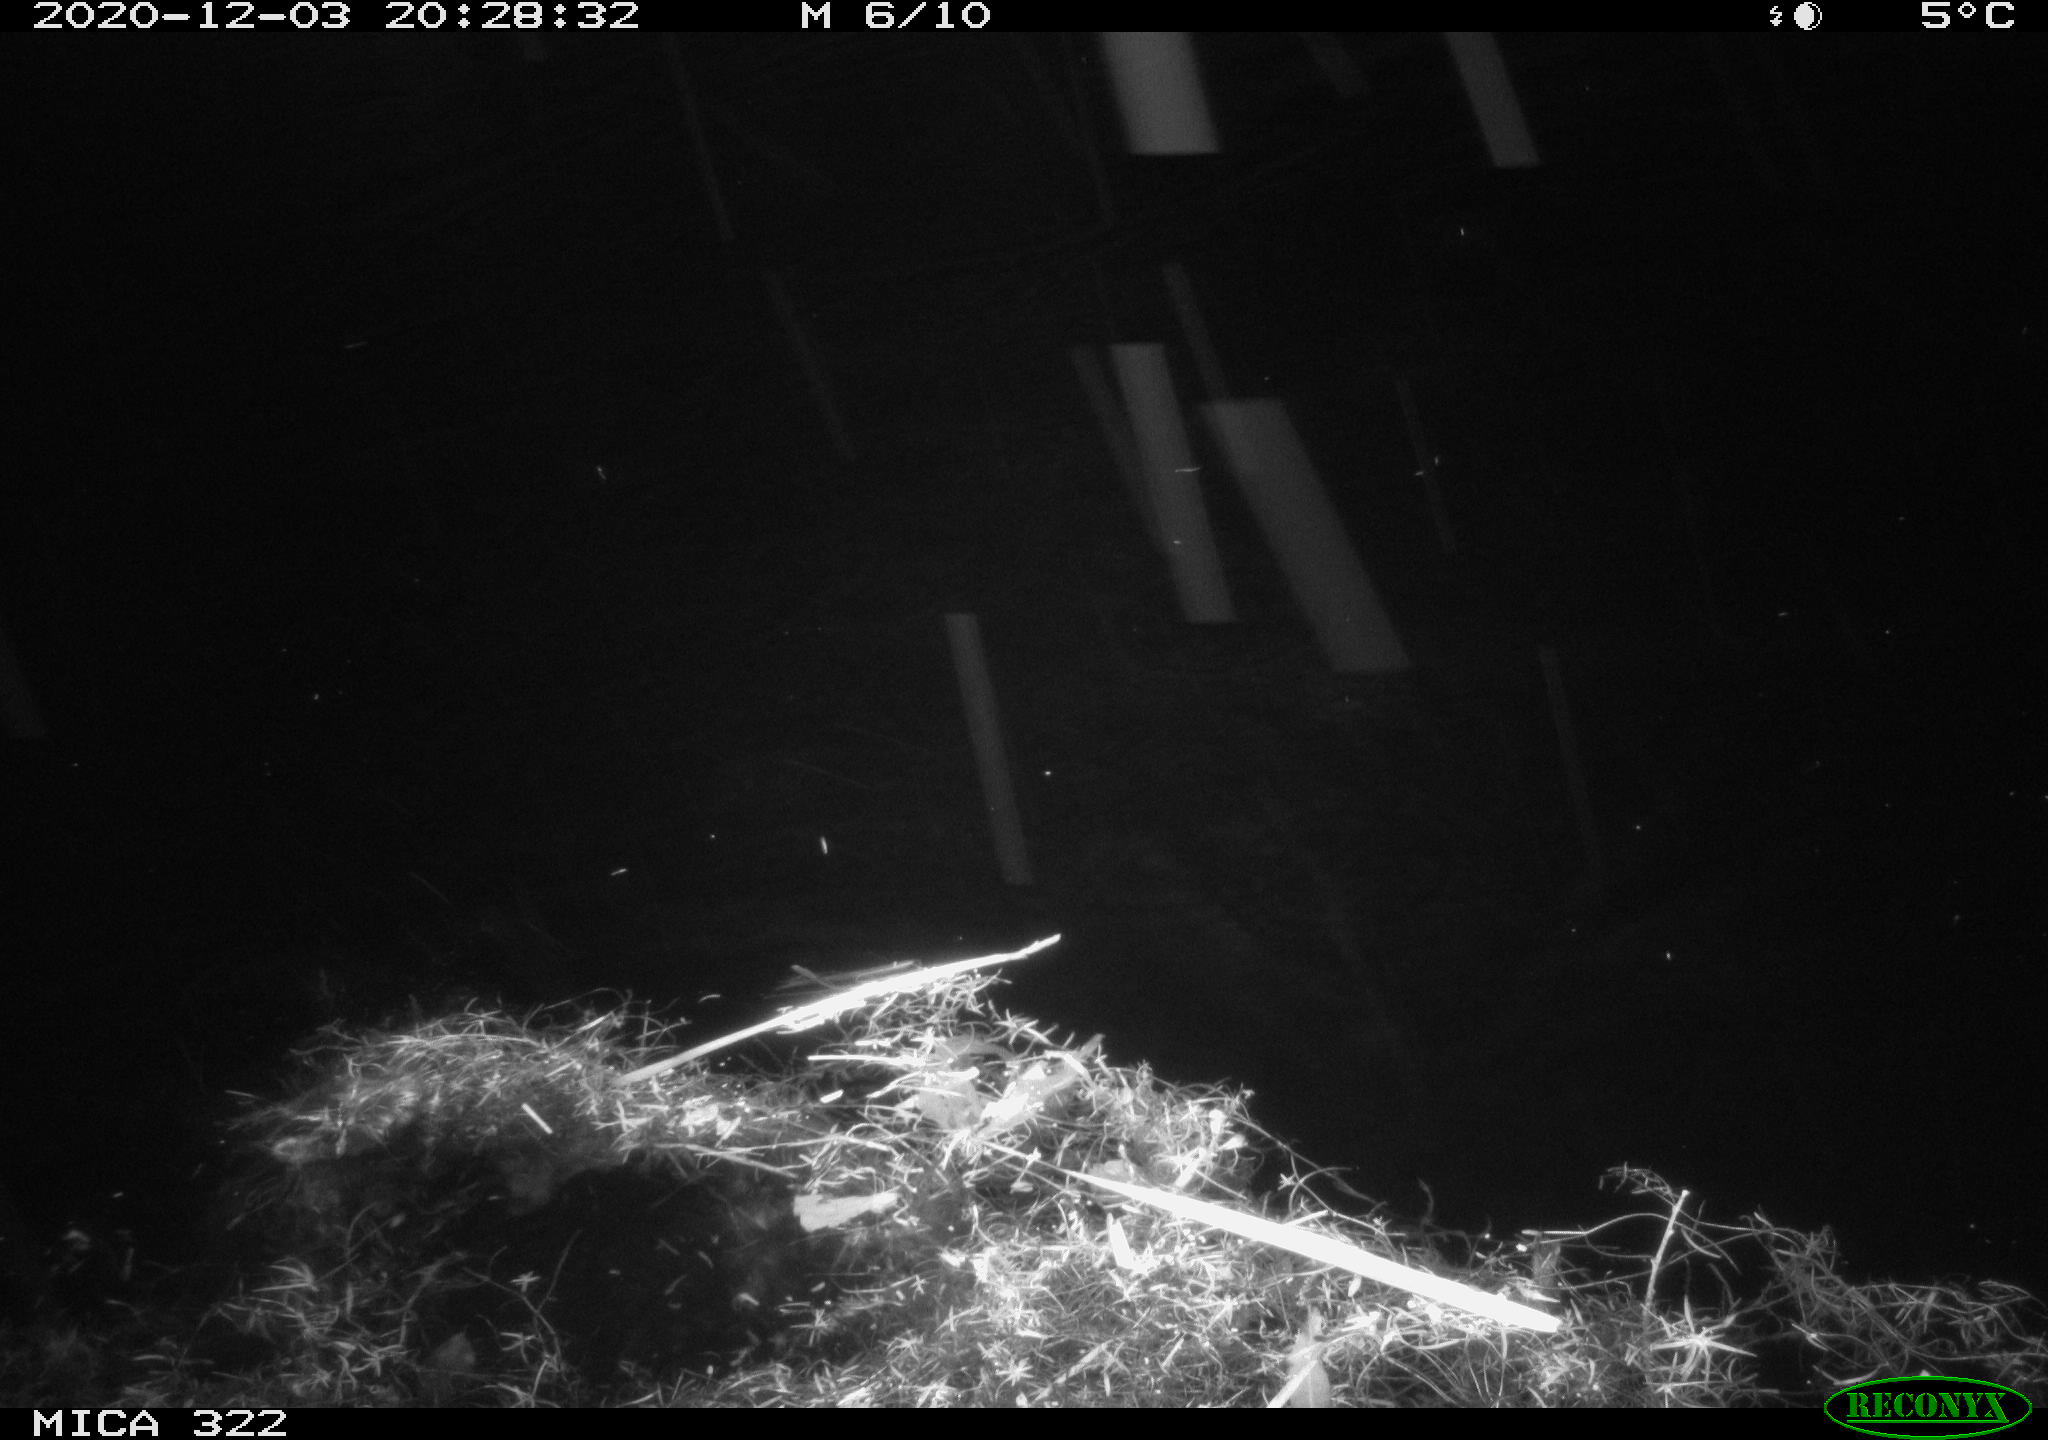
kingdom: Animalia
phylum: Chordata
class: Mammalia
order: Rodentia
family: Muridae
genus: Rattus
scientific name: Rattus norvegicus
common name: Brown rat
